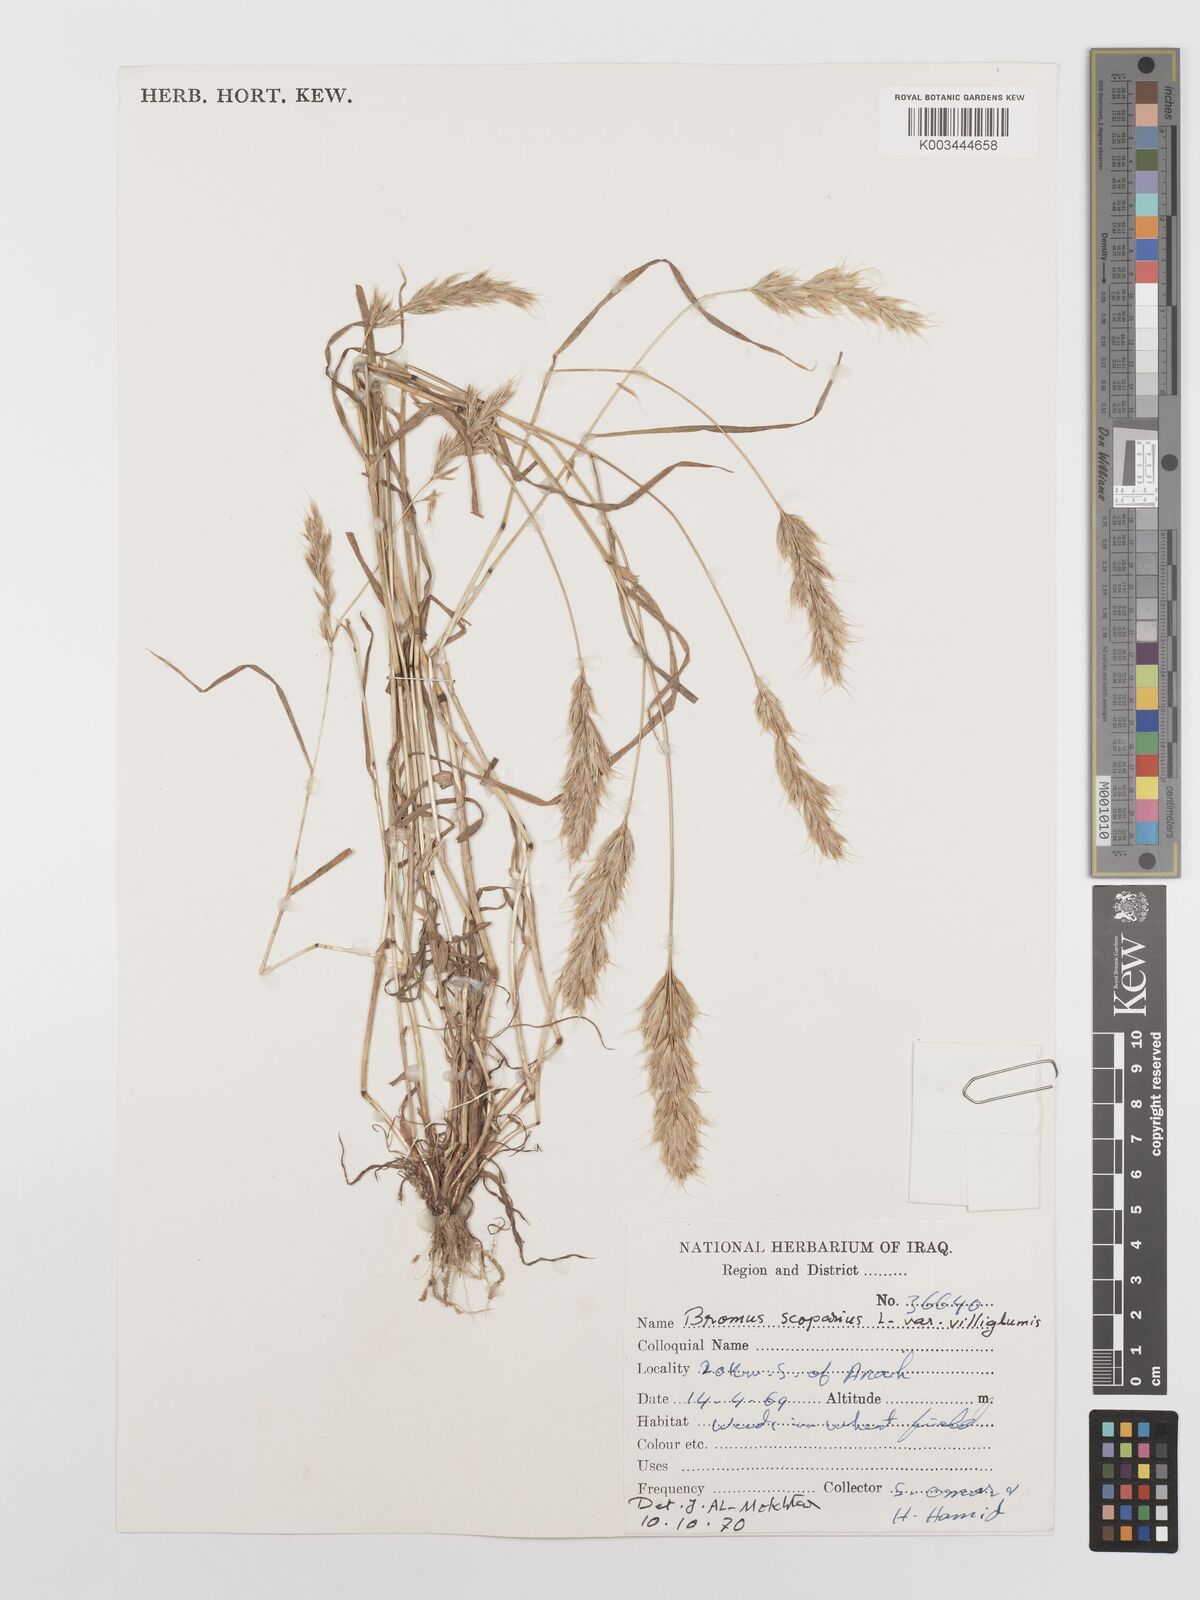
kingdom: Plantae
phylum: Tracheophyta
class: Liliopsida
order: Poales
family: Poaceae
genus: Bromus
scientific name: Bromus scoparius
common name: Broom brome
